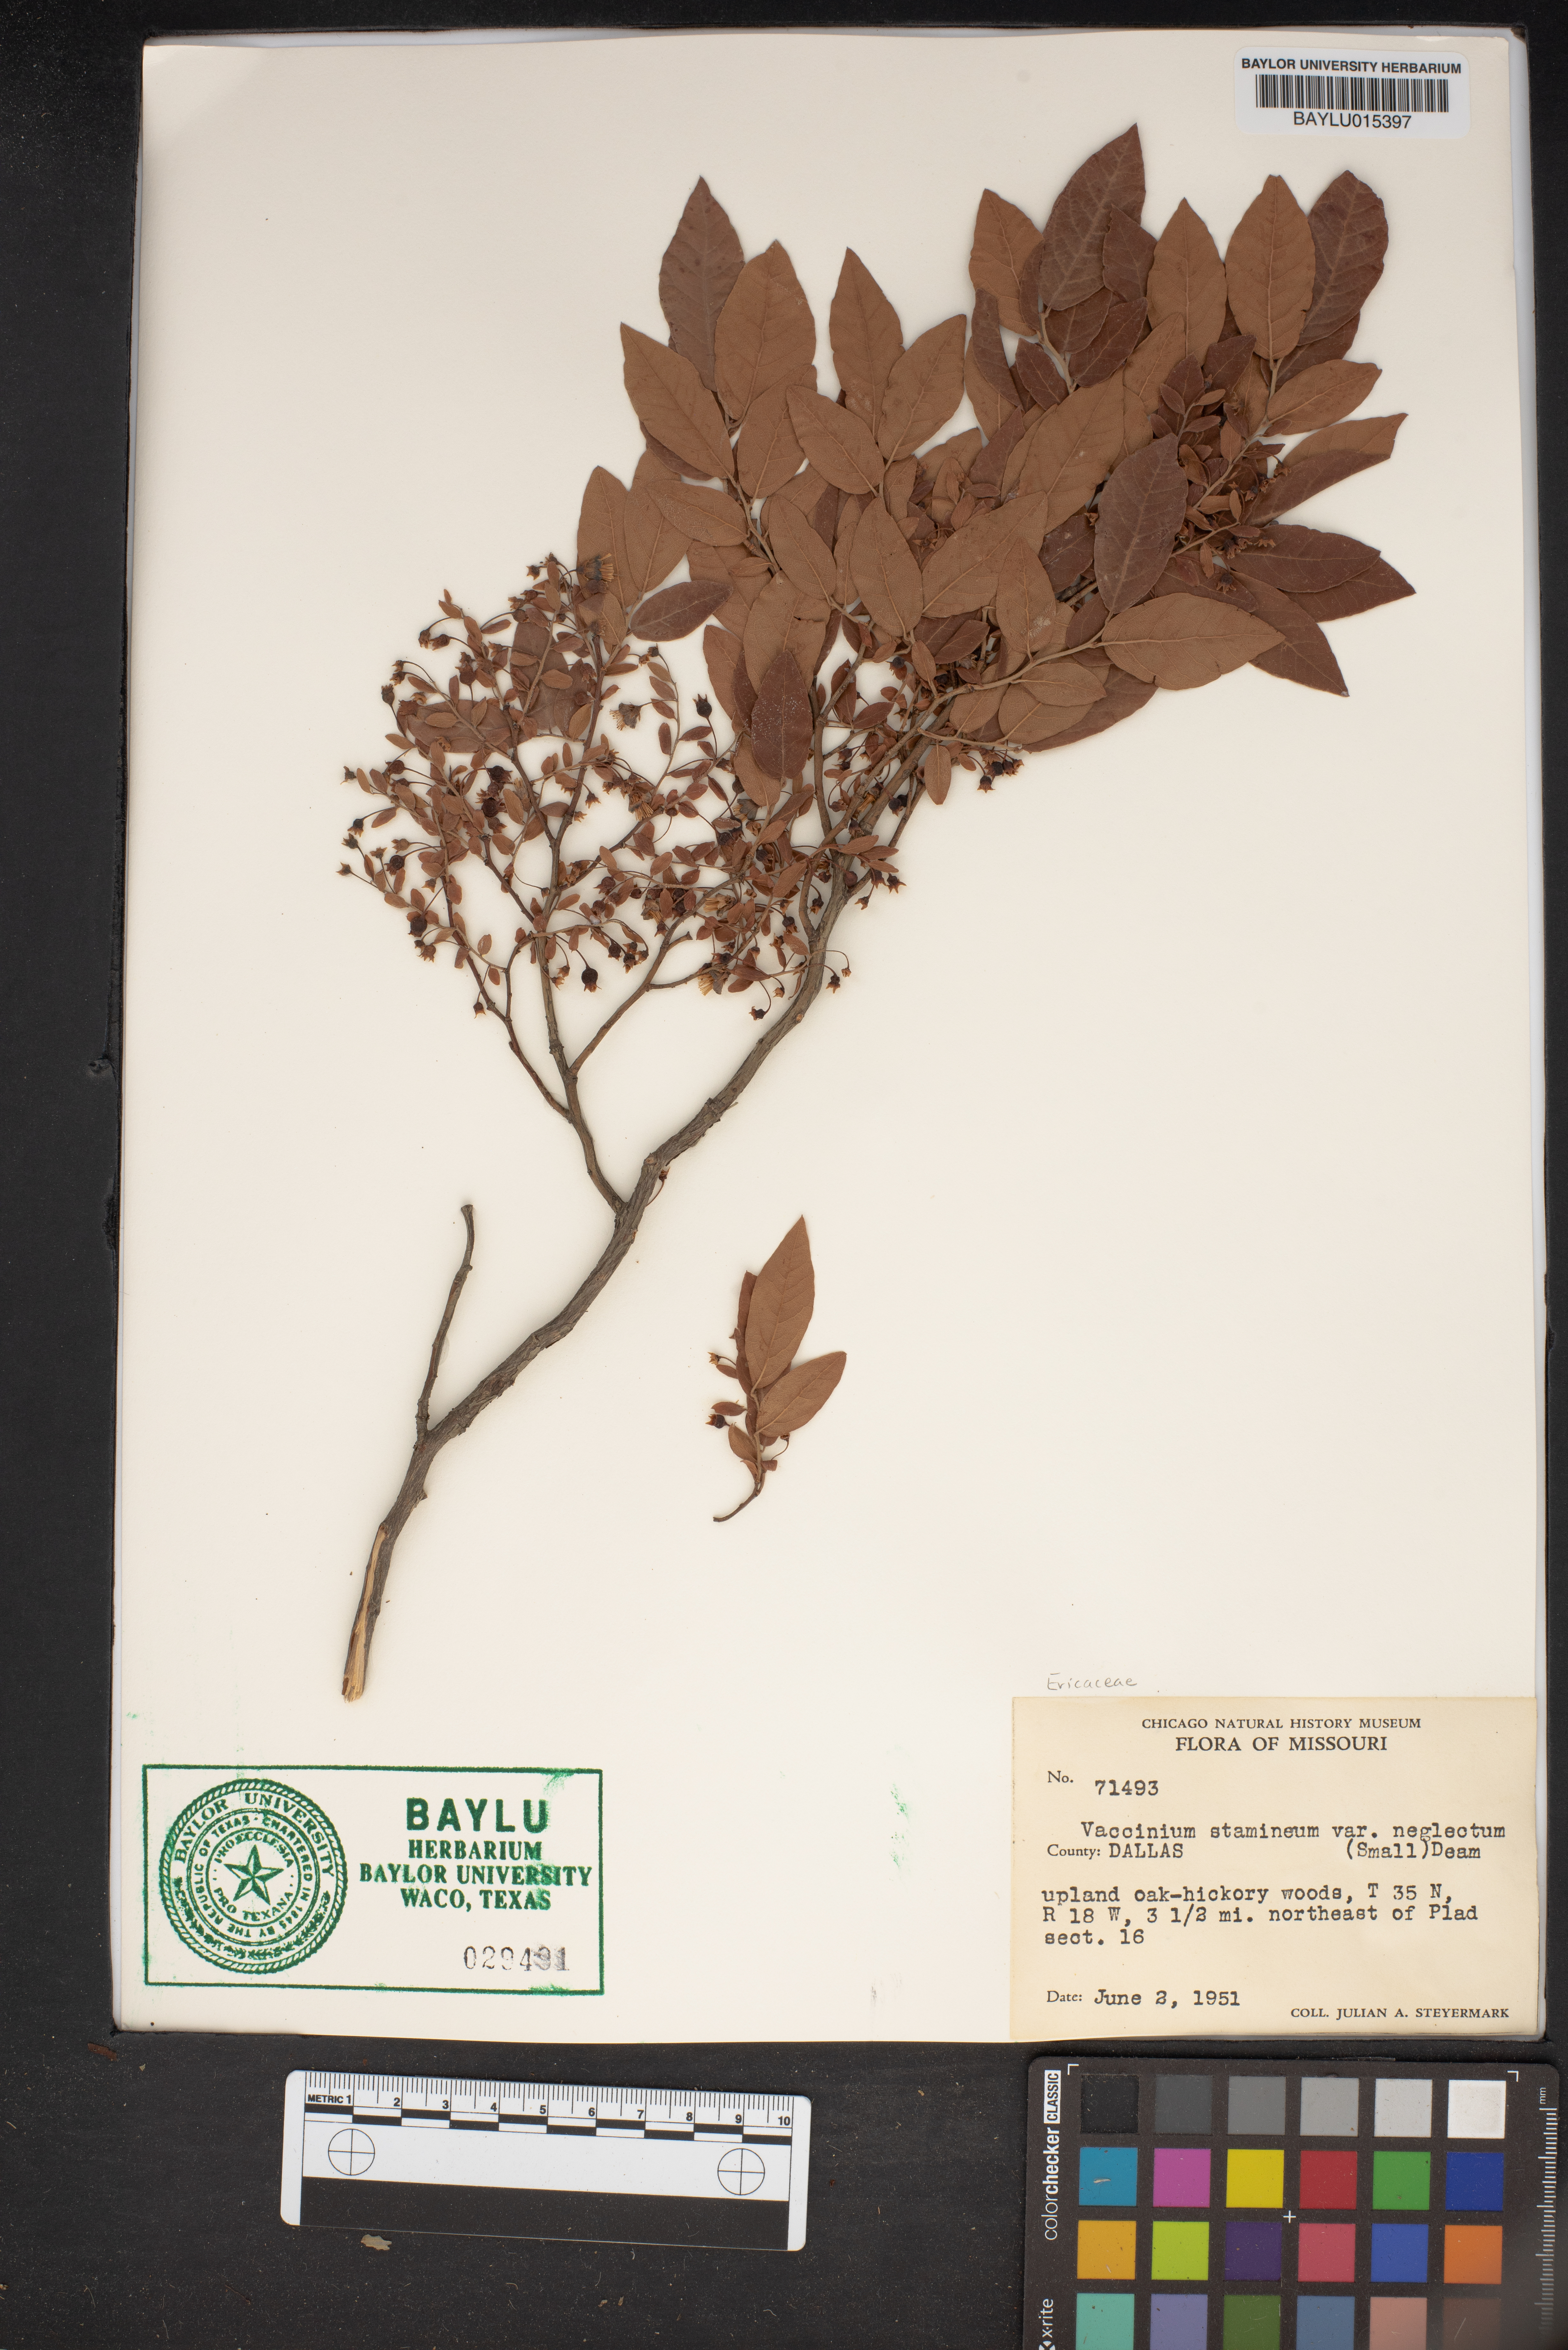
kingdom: Plantae
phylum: Tracheophyta
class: Magnoliopsida
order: Ericales
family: Ericaceae
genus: Vaccinium
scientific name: Vaccinium stamineum
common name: Deerberry
